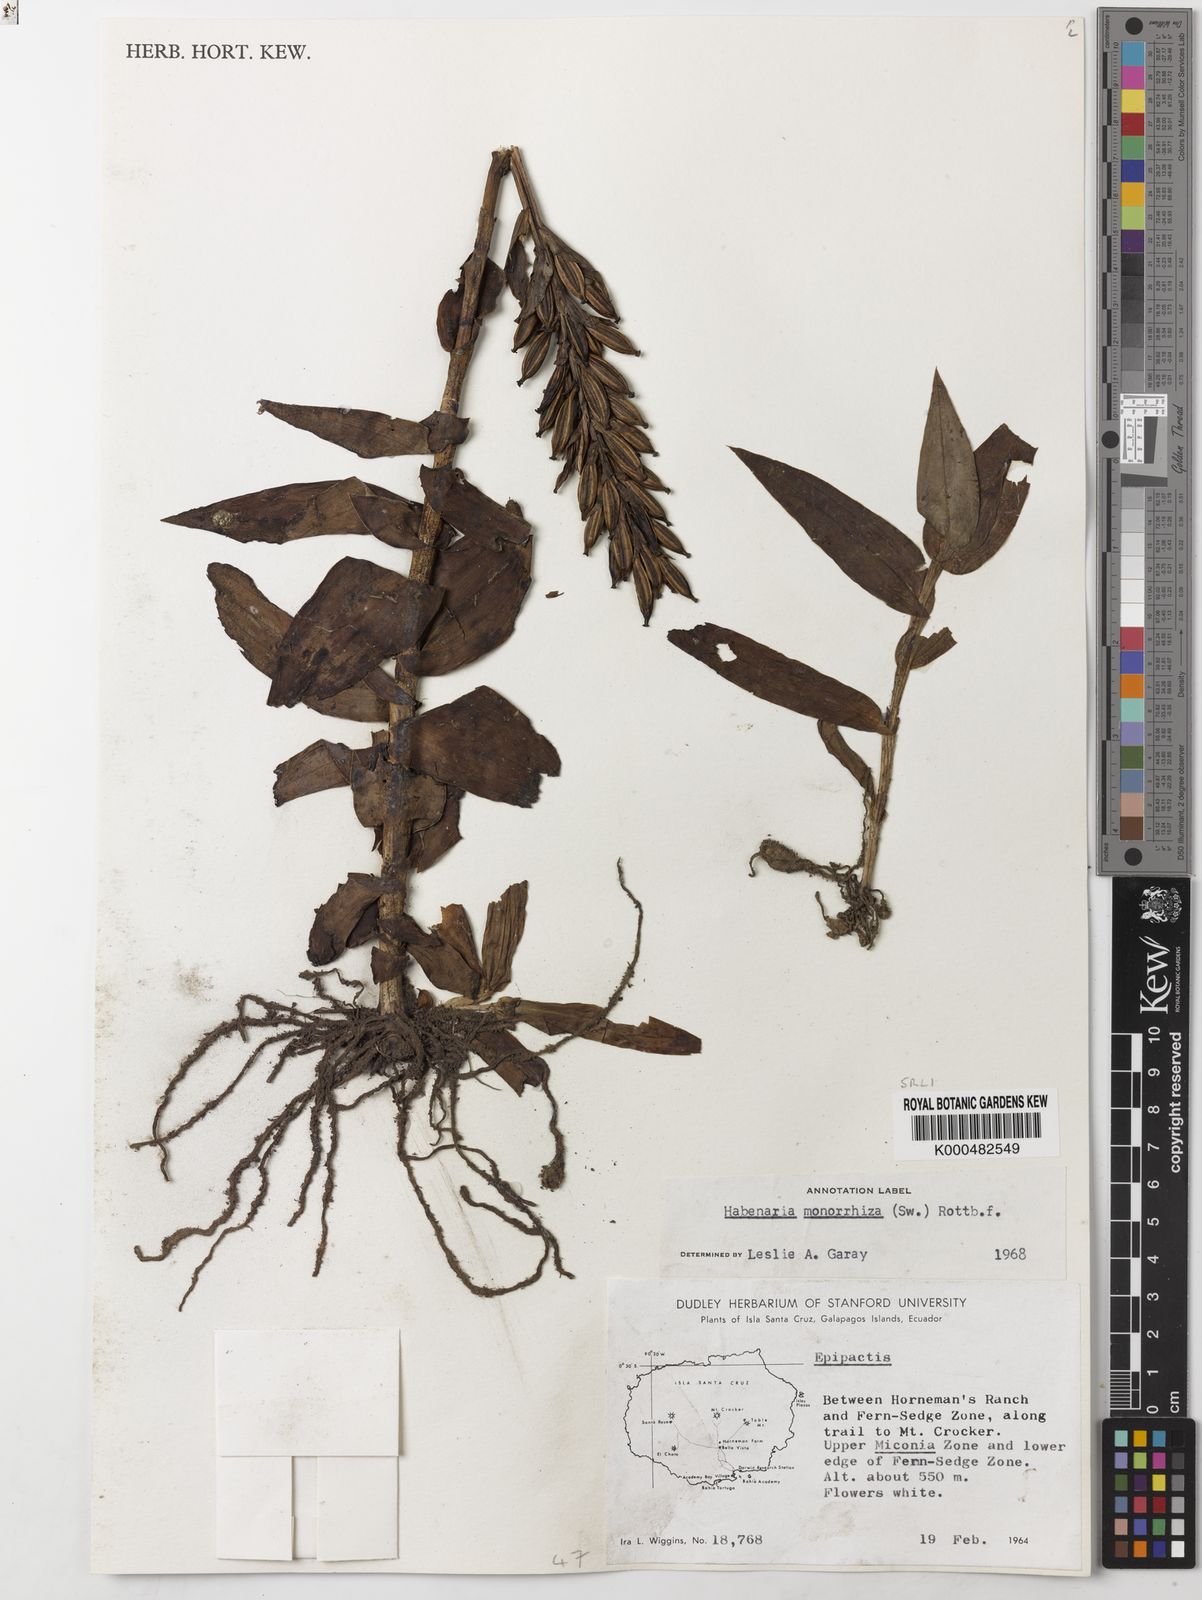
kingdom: Plantae
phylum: Tracheophyta
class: Liliopsida
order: Asparagales
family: Orchidaceae
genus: Habenaria
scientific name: Habenaria monorrhiza
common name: Tropical bog orchid
